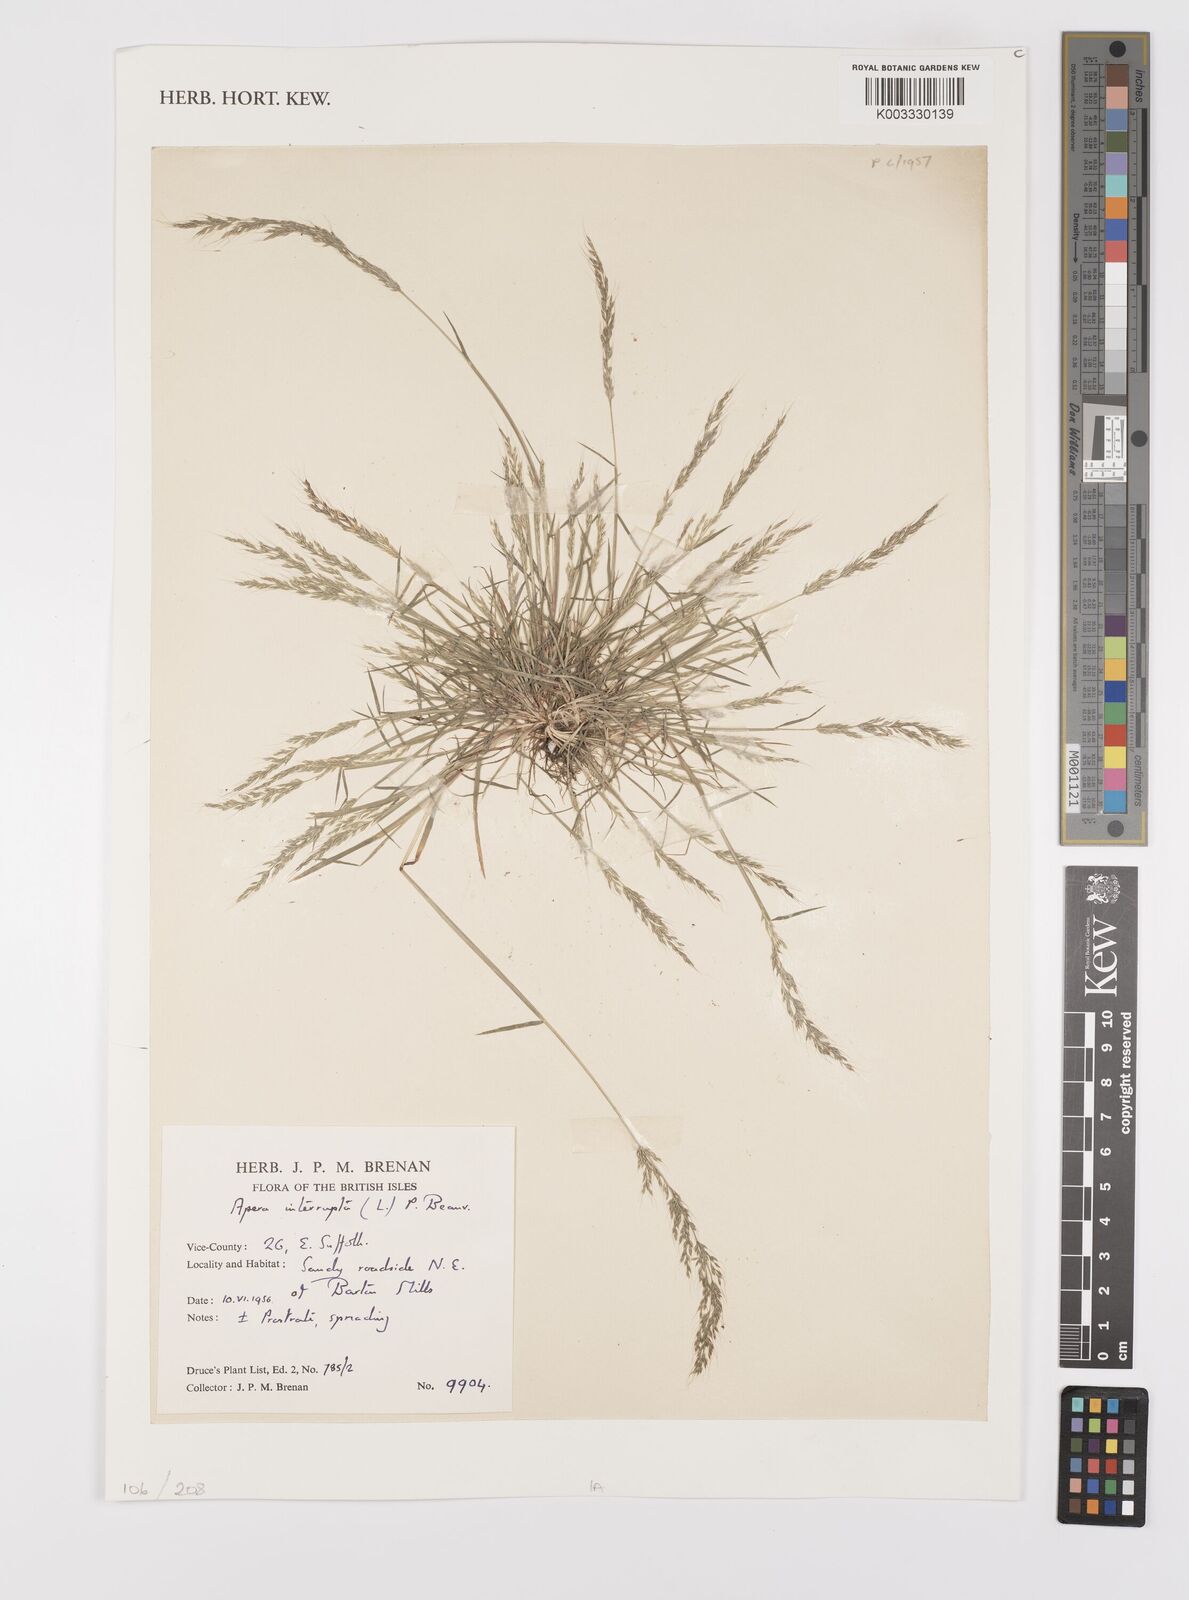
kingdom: Plantae
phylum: Tracheophyta
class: Liliopsida
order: Poales
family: Poaceae
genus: Apera
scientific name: Apera interrupta
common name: Dense silky-bent
